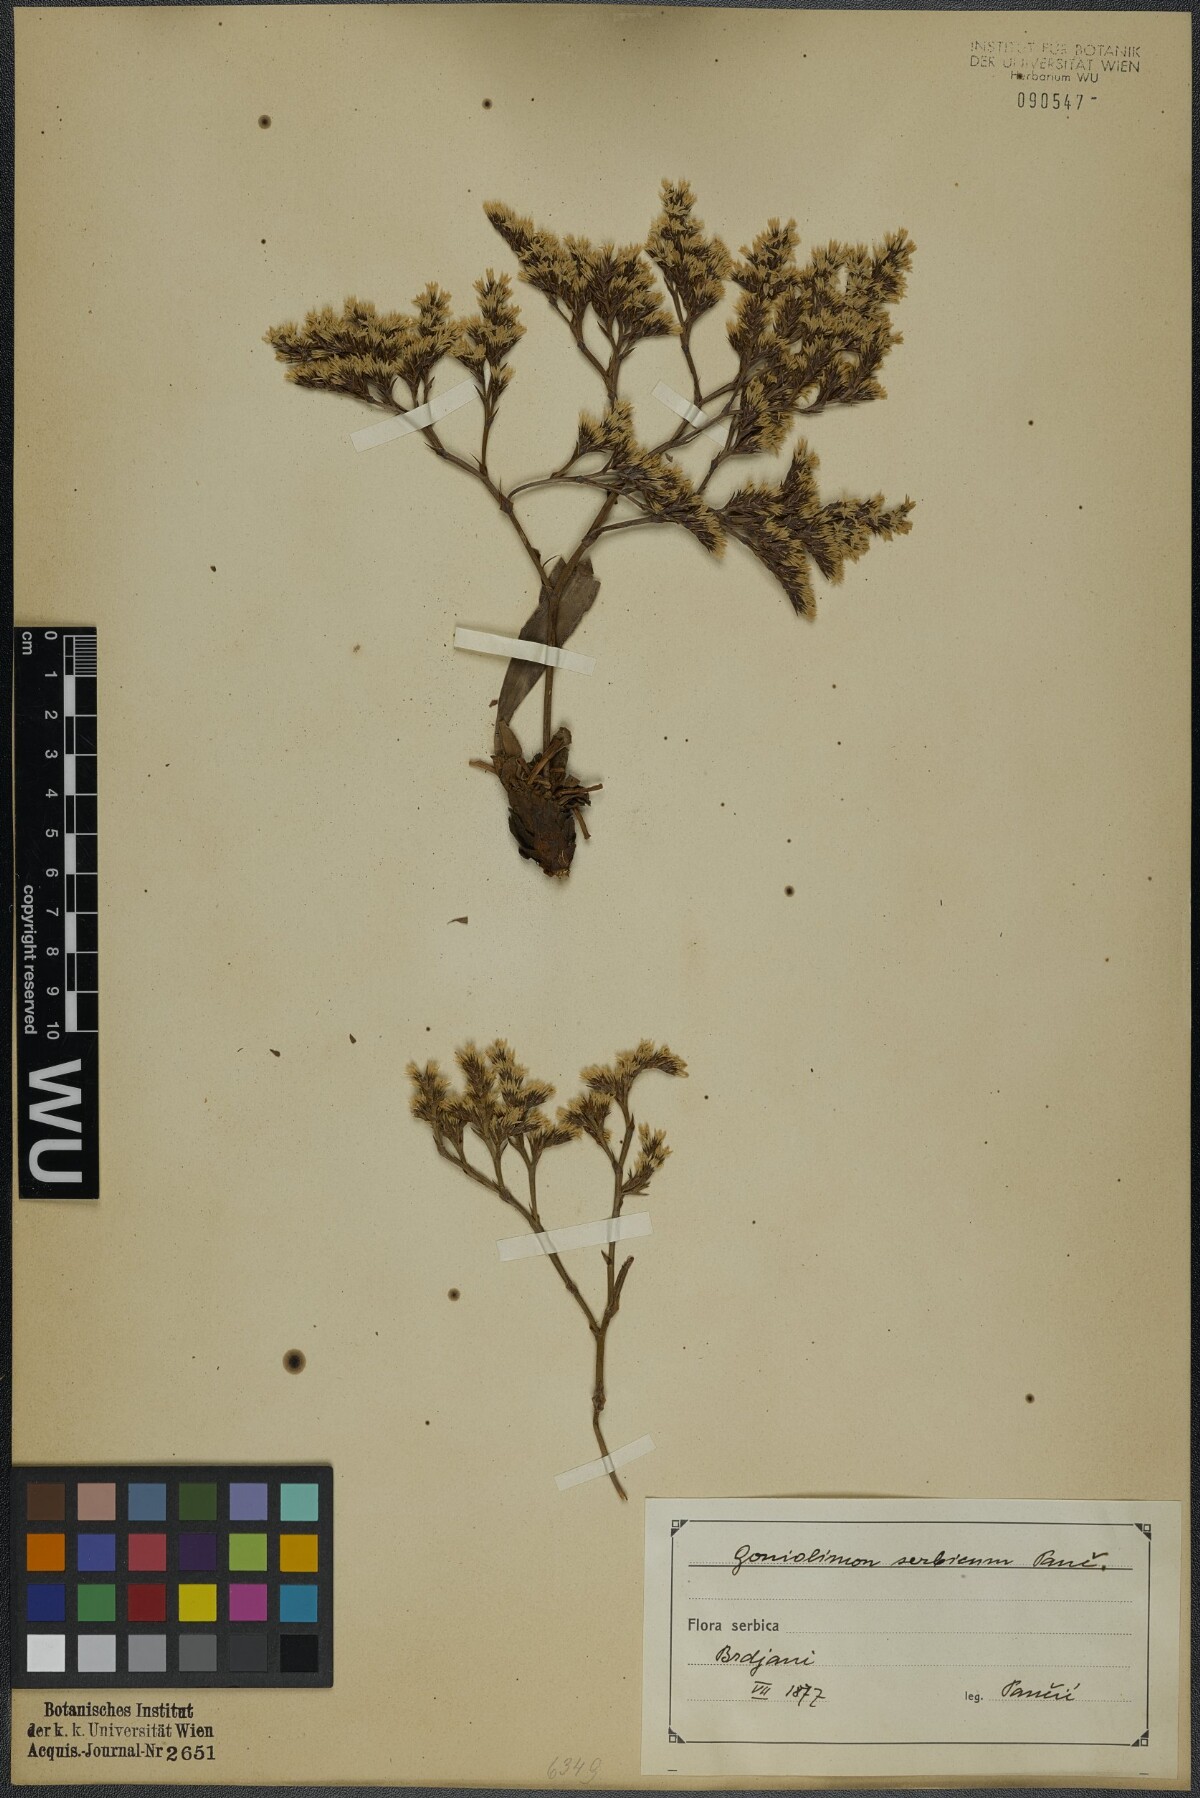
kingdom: Plantae
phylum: Tracheophyta
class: Magnoliopsida
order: Caryophyllales
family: Plumbaginaceae
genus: Goniolimon
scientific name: Goniolimon incanum
